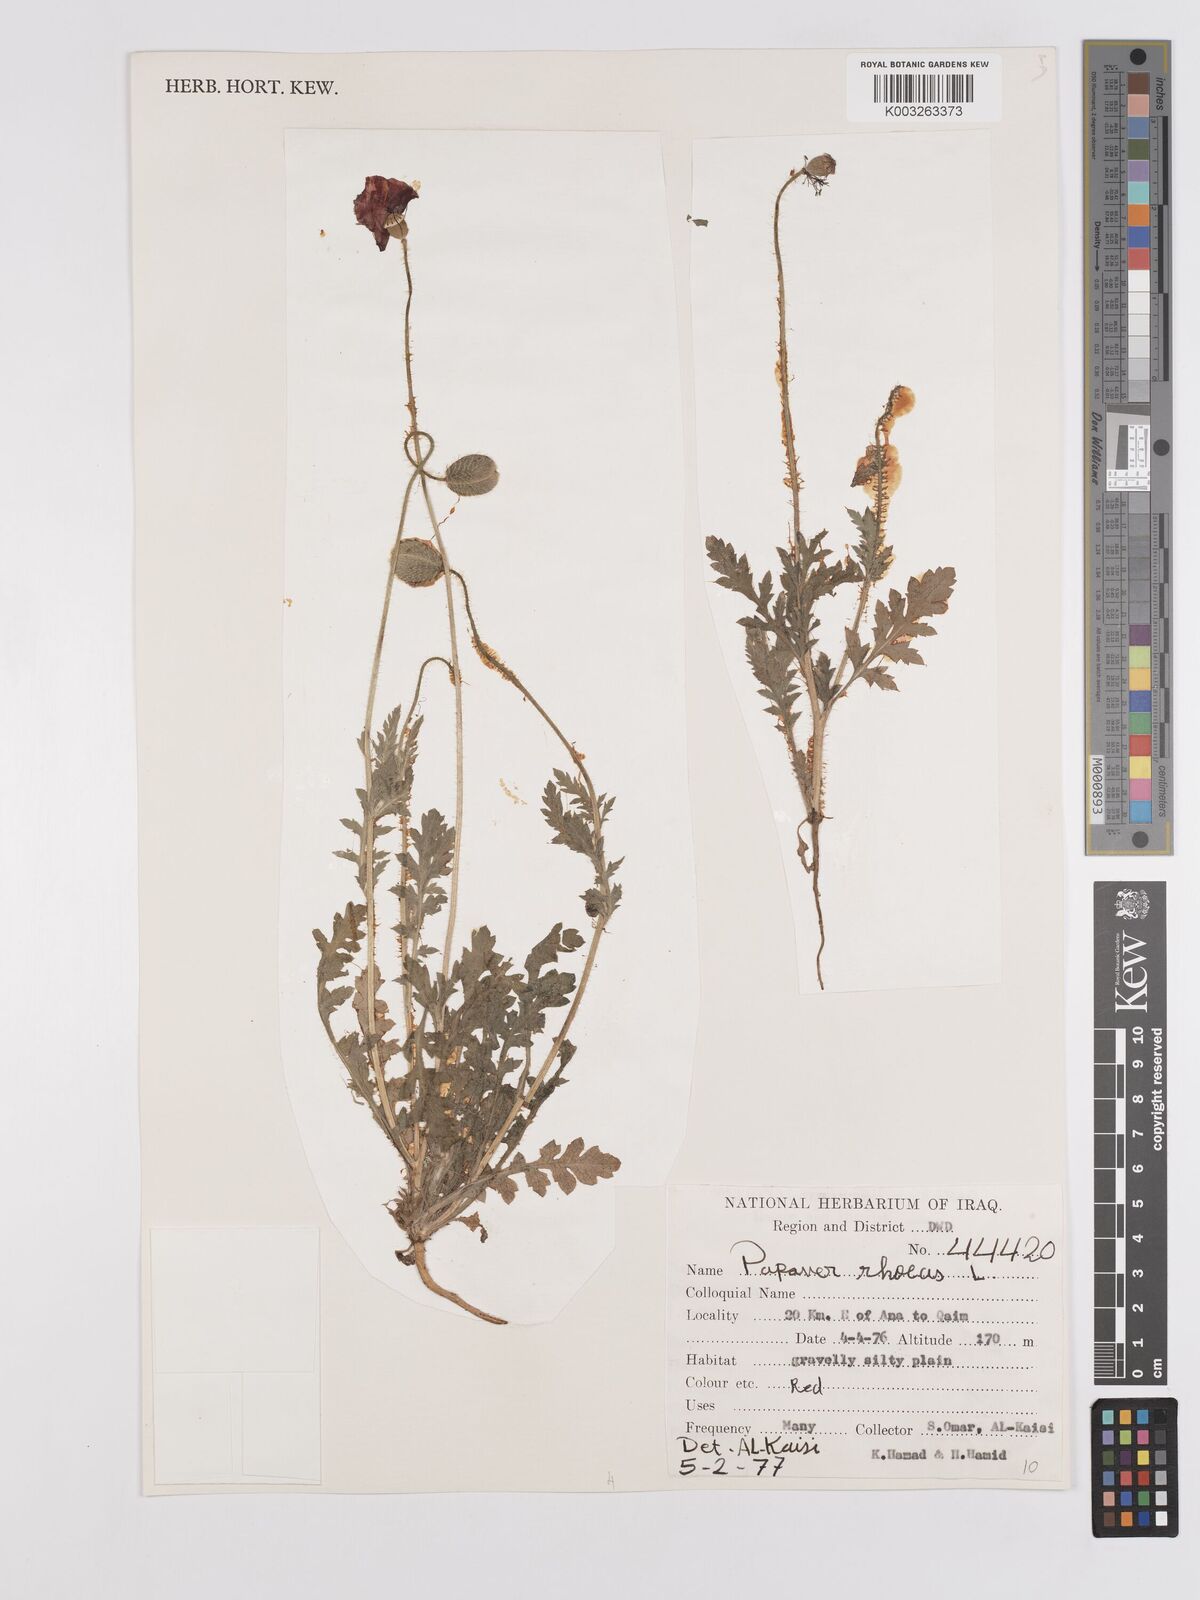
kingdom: Plantae
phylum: Tracheophyta
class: Magnoliopsida
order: Ranunculales
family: Papaveraceae
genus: Papaver
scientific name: Papaver rhoeas
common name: Corn poppy
